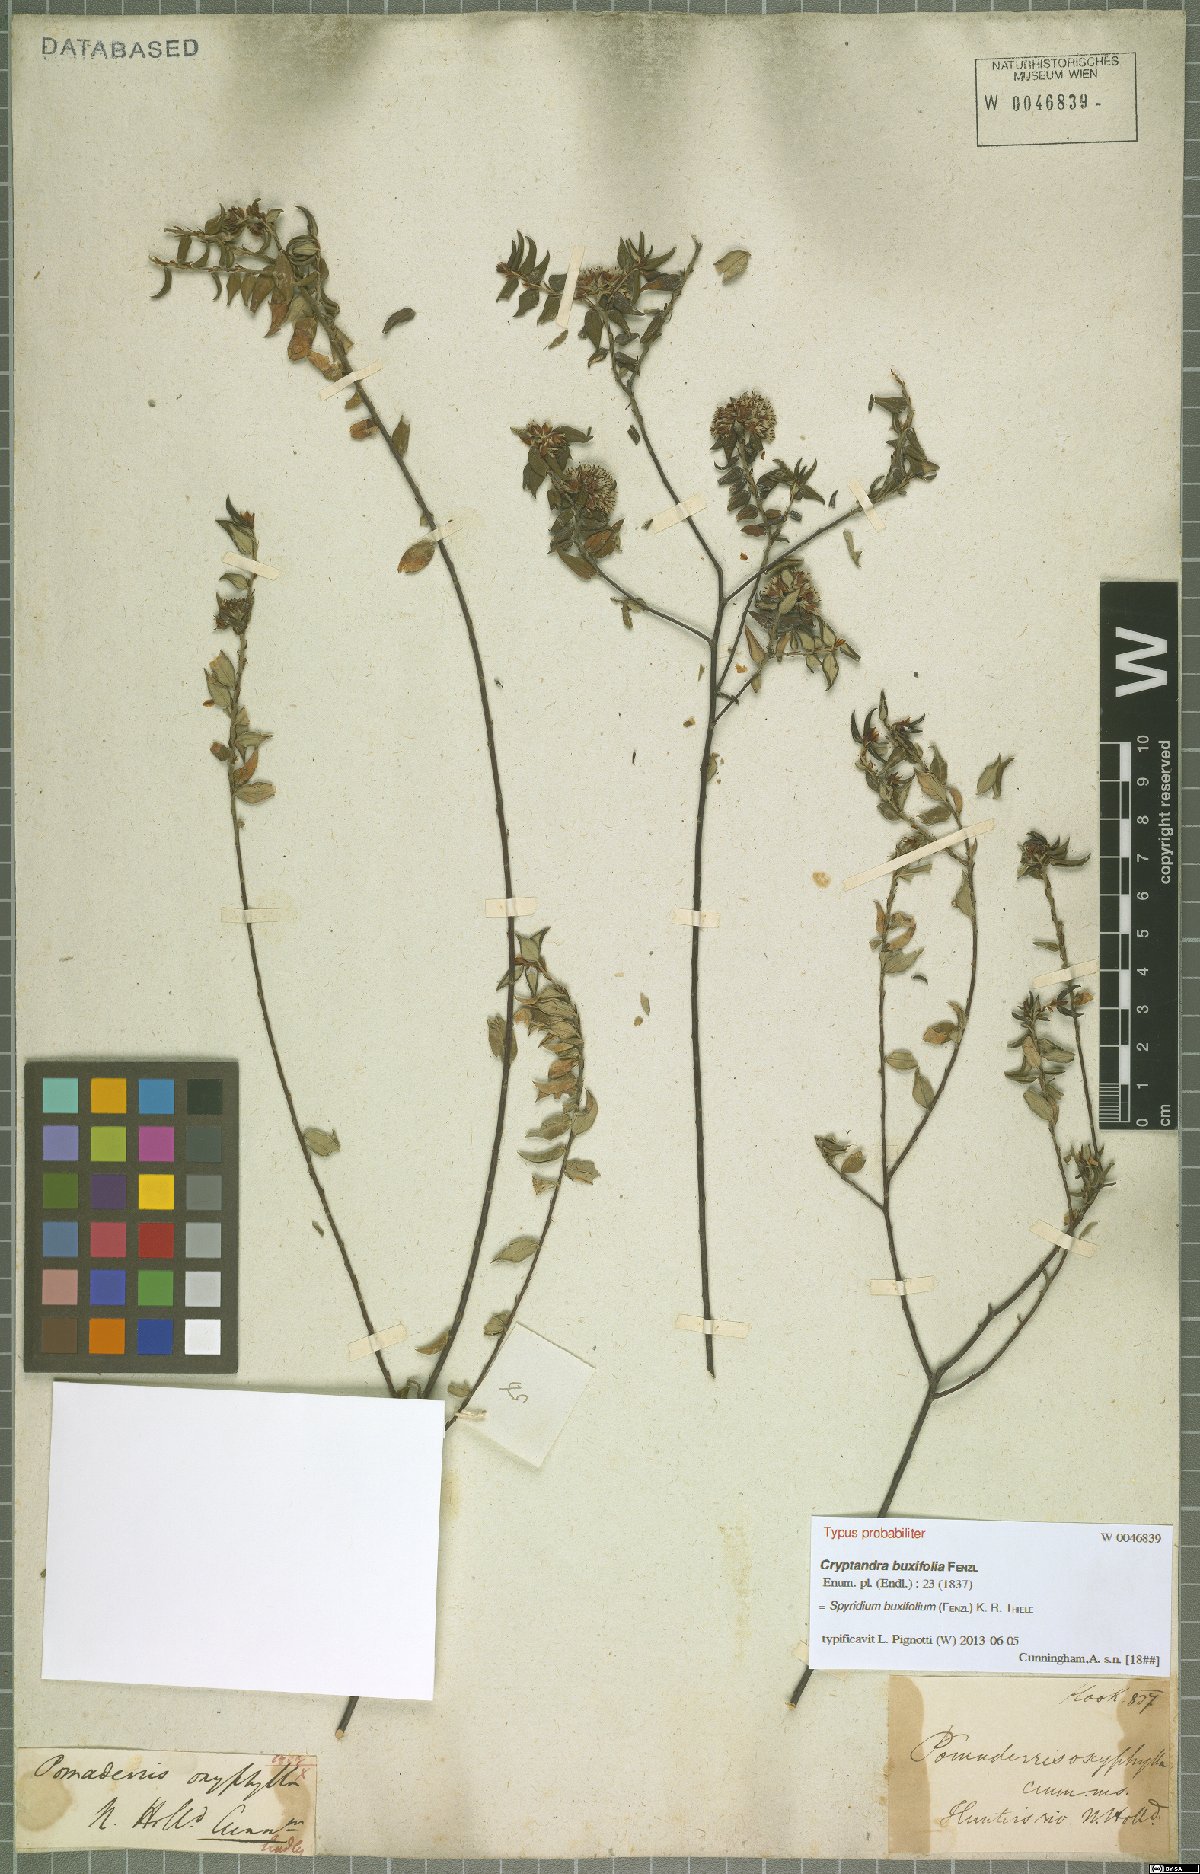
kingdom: Plantae
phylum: Tracheophyta
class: Magnoliopsida
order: Rosales
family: Rhamnaceae
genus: Spyridium
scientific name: Spyridium buxifolium
